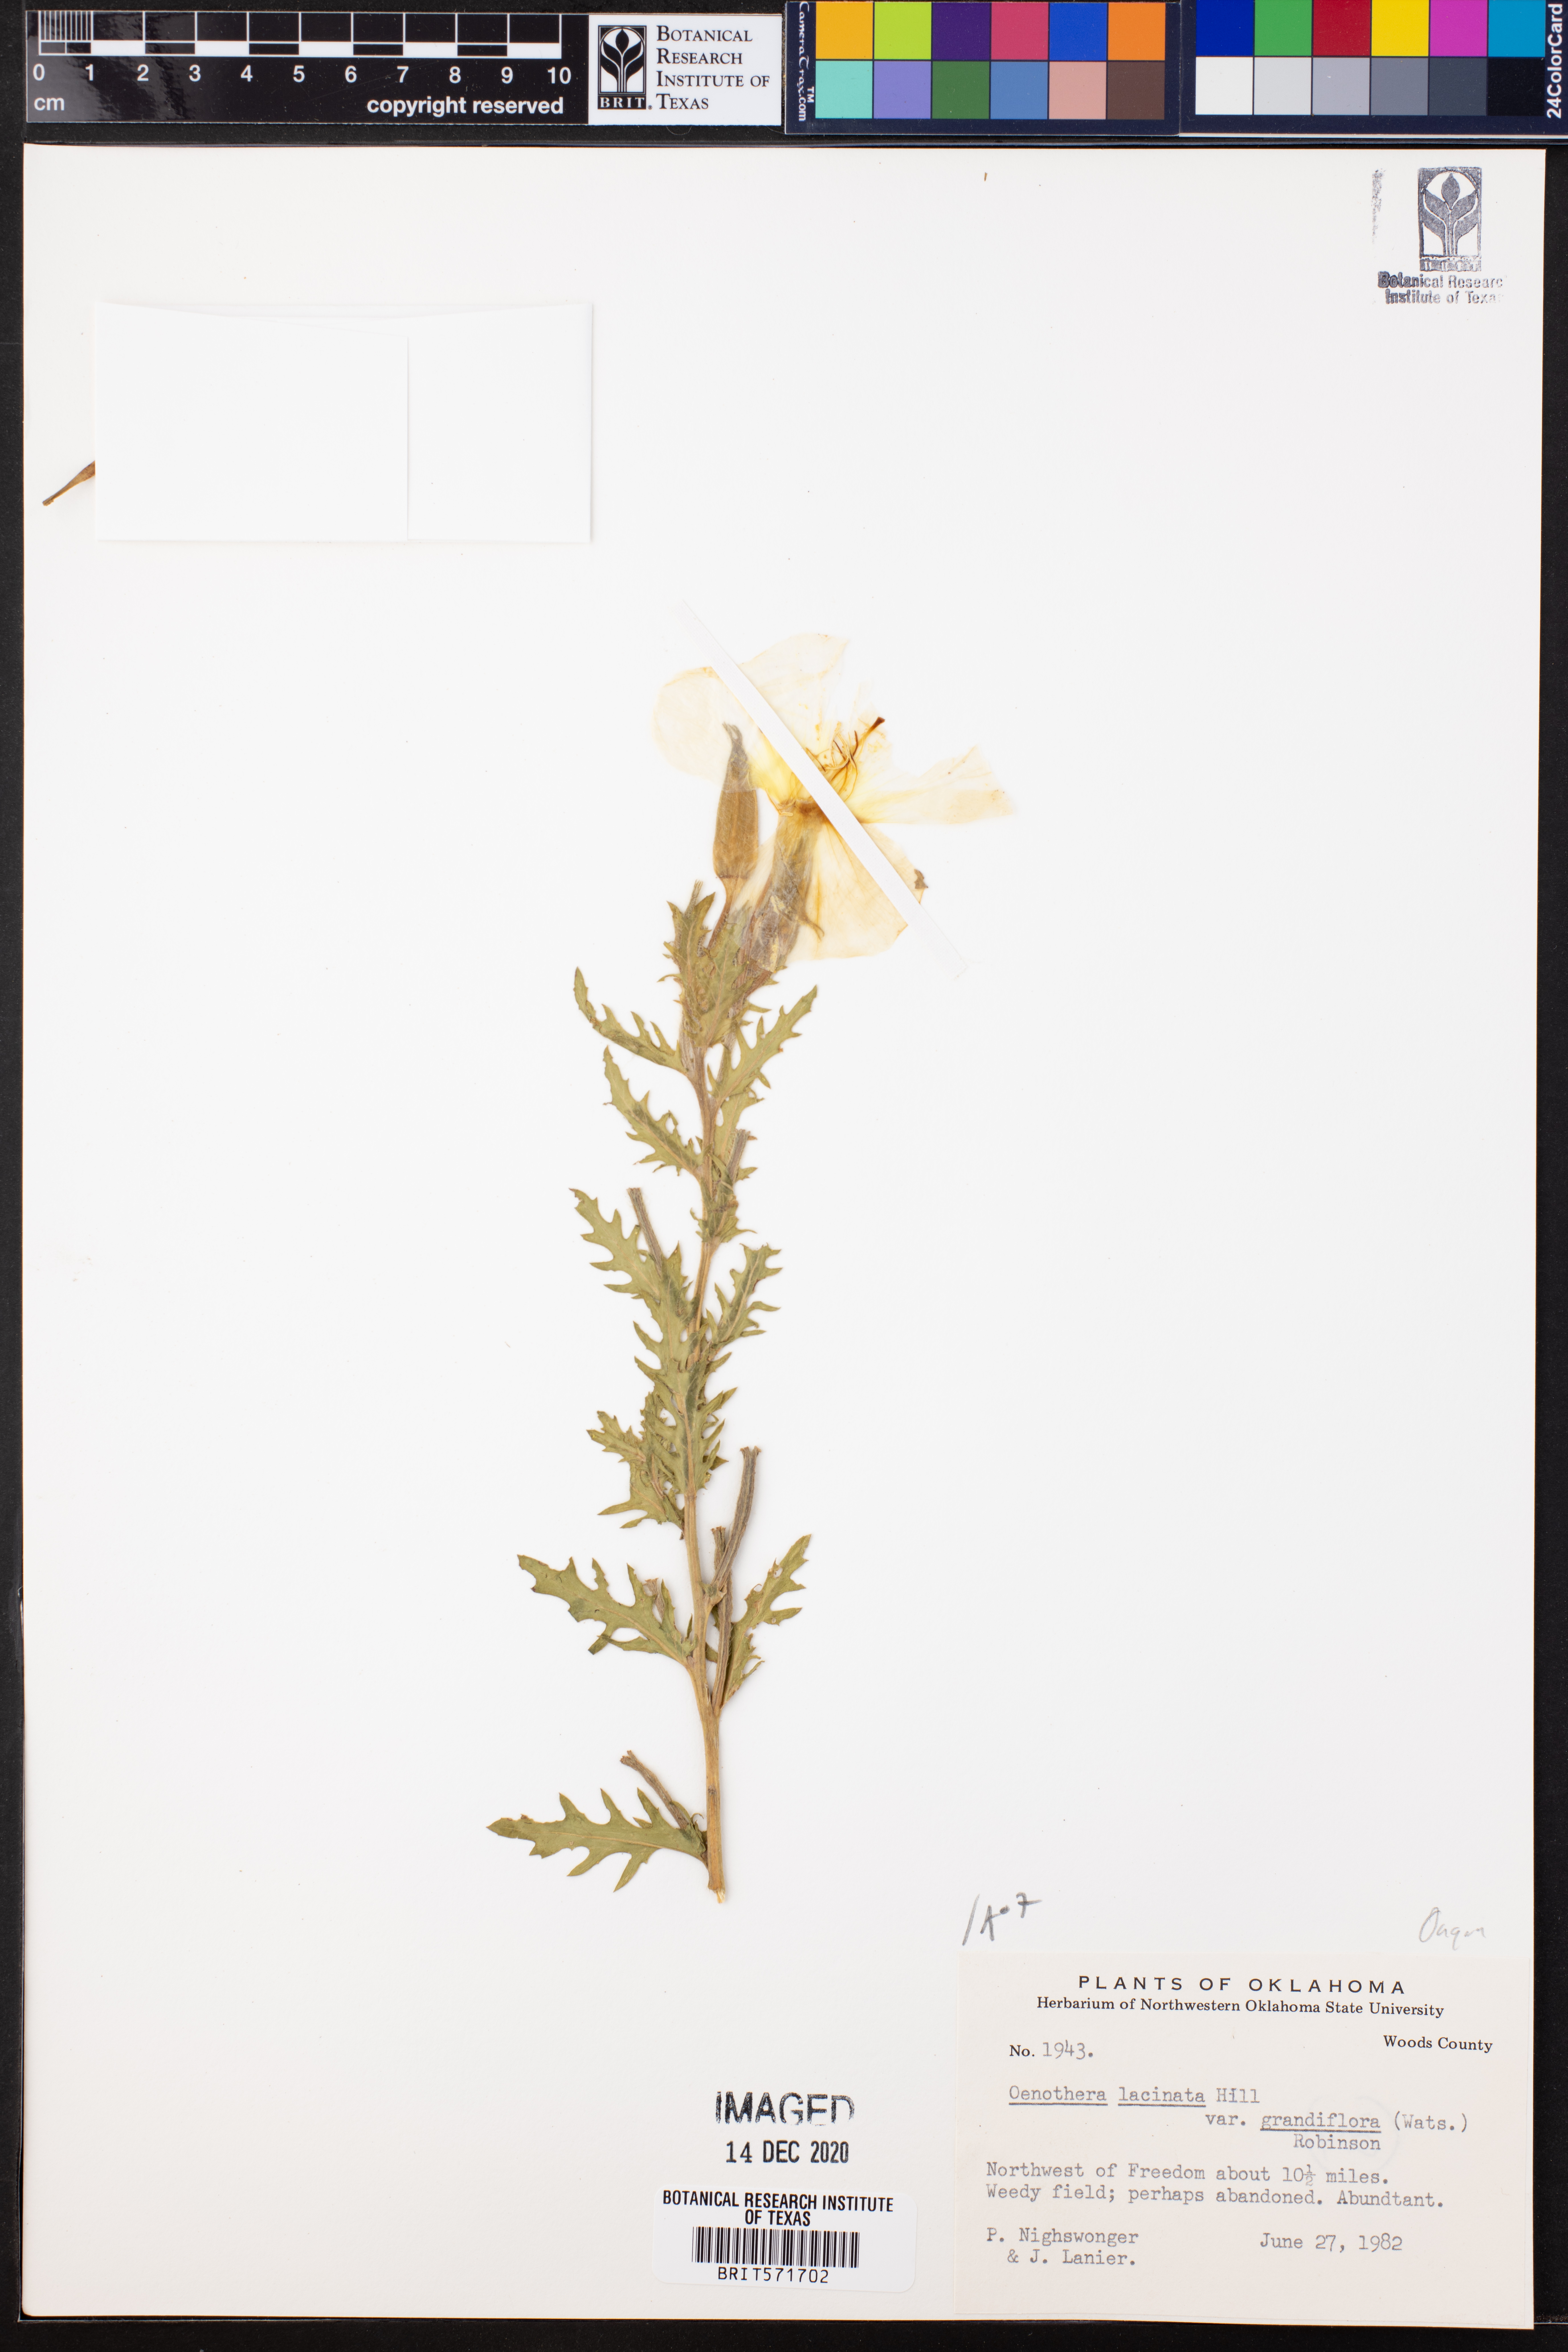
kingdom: Plantae
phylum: Tracheophyta
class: Magnoliopsida
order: Myrtales
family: Onagraceae
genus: Oenothera
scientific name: Oenothera grandis
